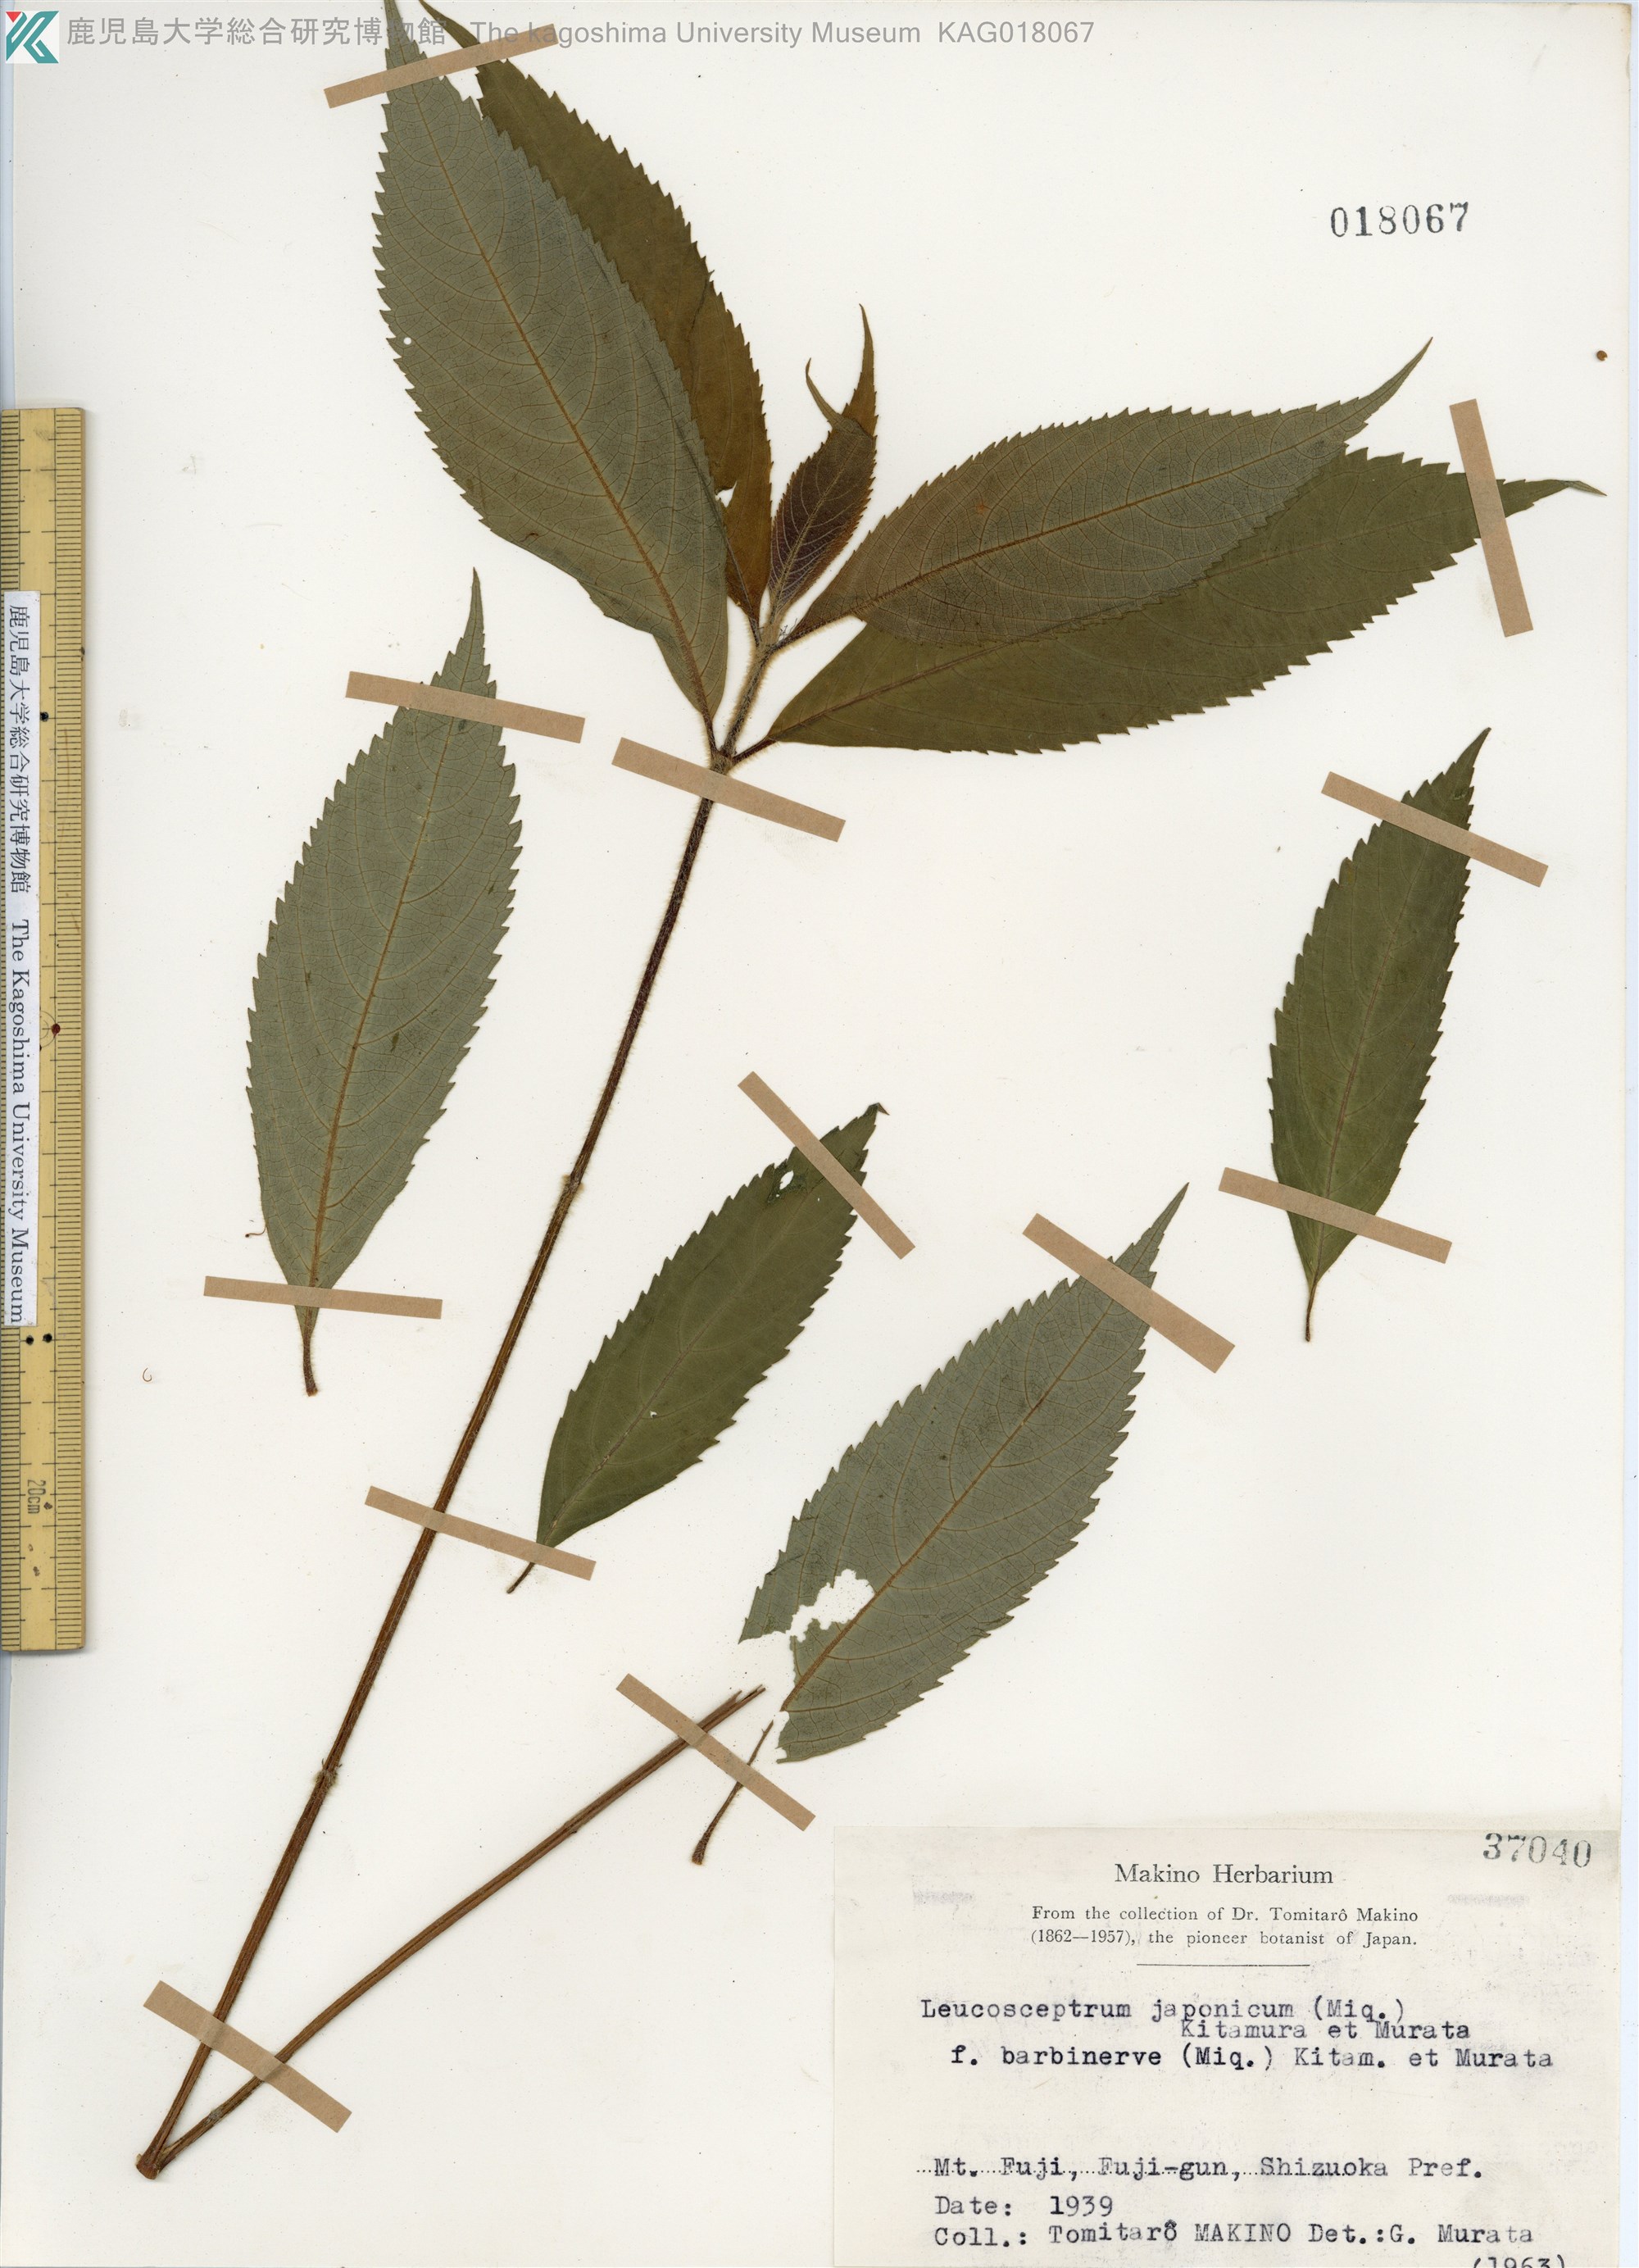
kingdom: Plantae
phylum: Tracheophyta
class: Magnoliopsida
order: Lamiales
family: Lamiaceae
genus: Comanthosphace
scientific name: Comanthosphace stellipila
